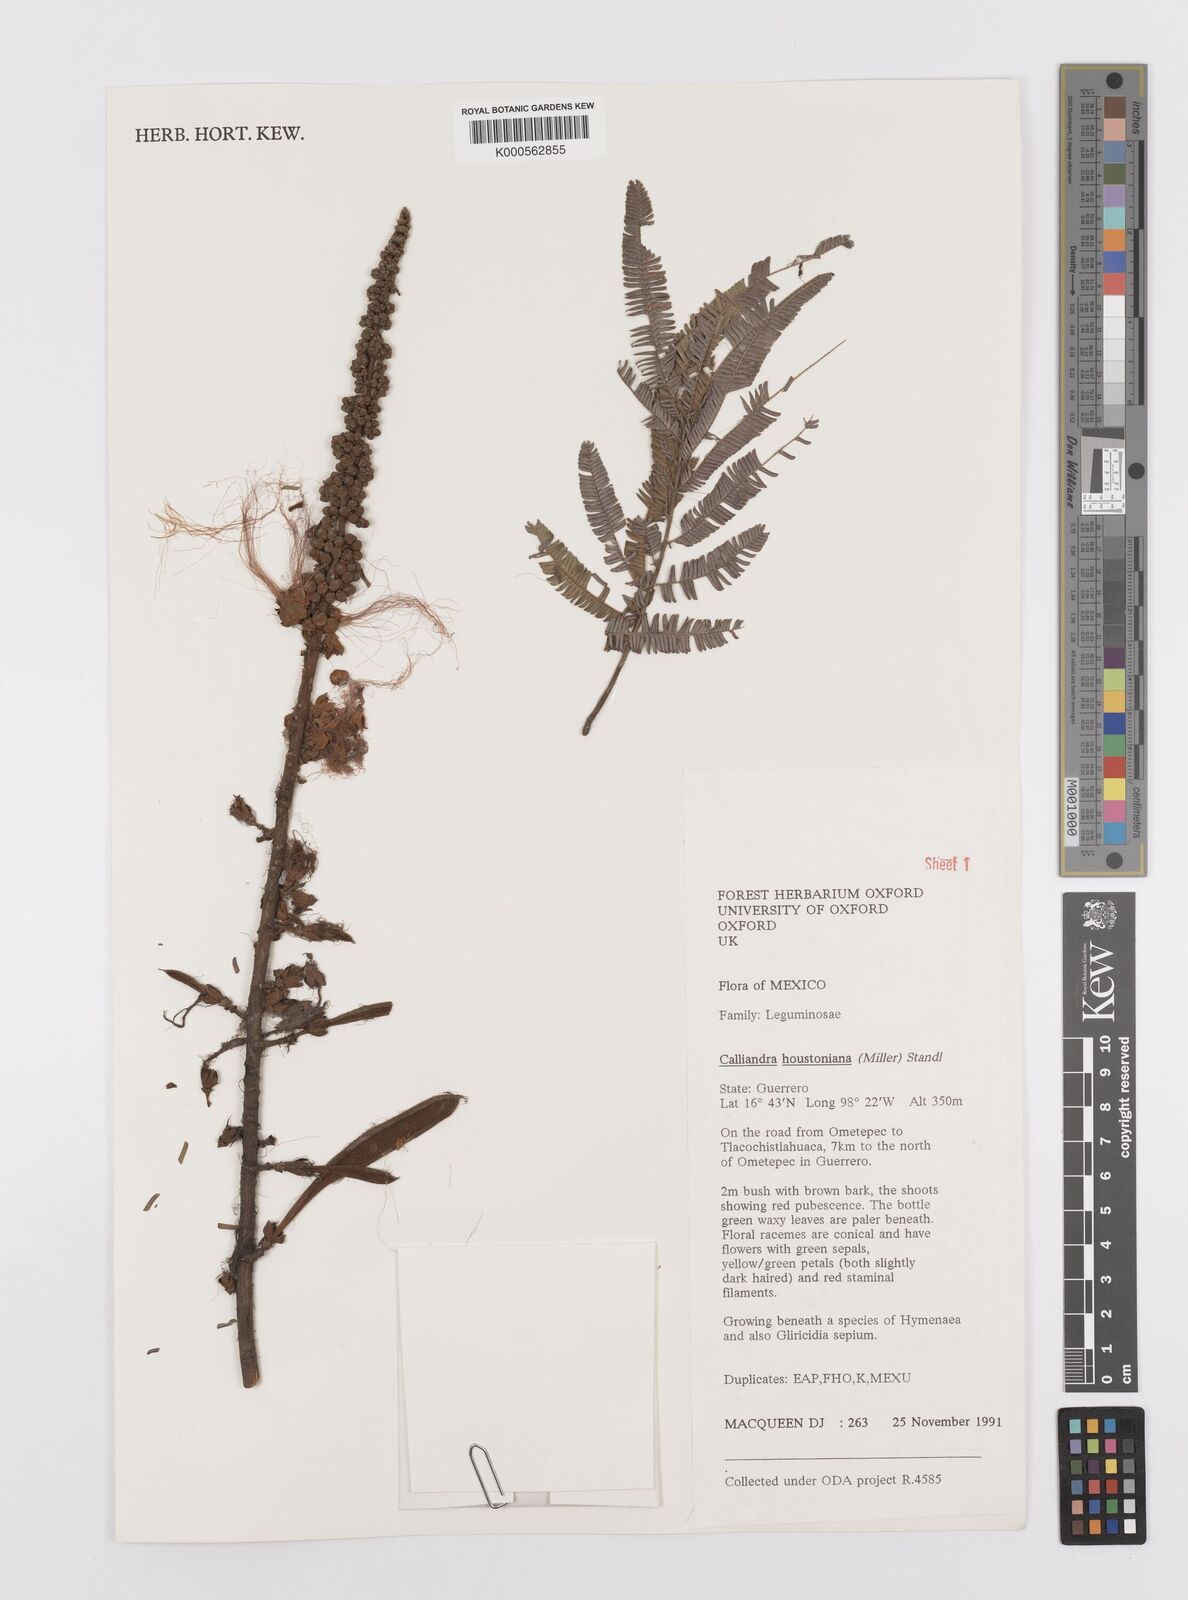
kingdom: Plantae
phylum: Tracheophyta
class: Magnoliopsida
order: Fabales
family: Fabaceae
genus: Calliandra
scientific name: Calliandra houstoniana
